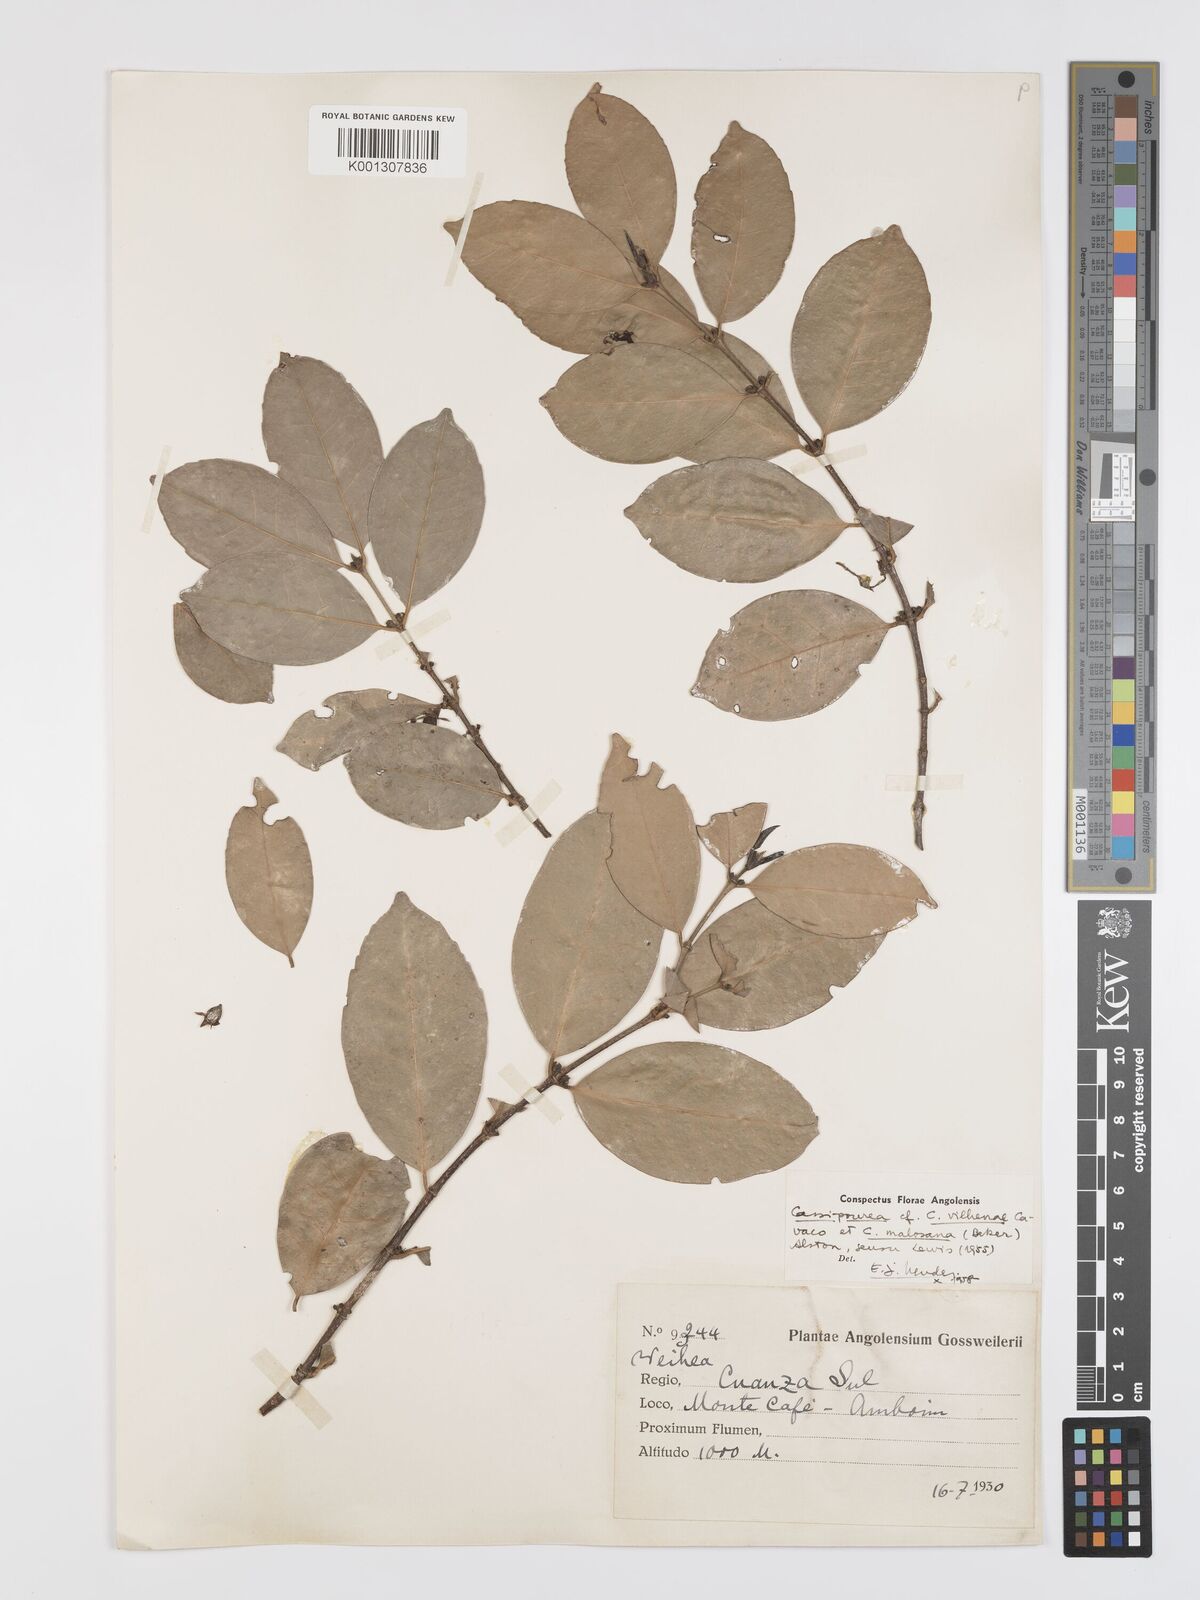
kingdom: Plantae
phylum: Tracheophyta
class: Magnoliopsida
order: Malpighiales
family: Rhizophoraceae
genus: Cassipourea
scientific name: Cassipourea vilhenae
